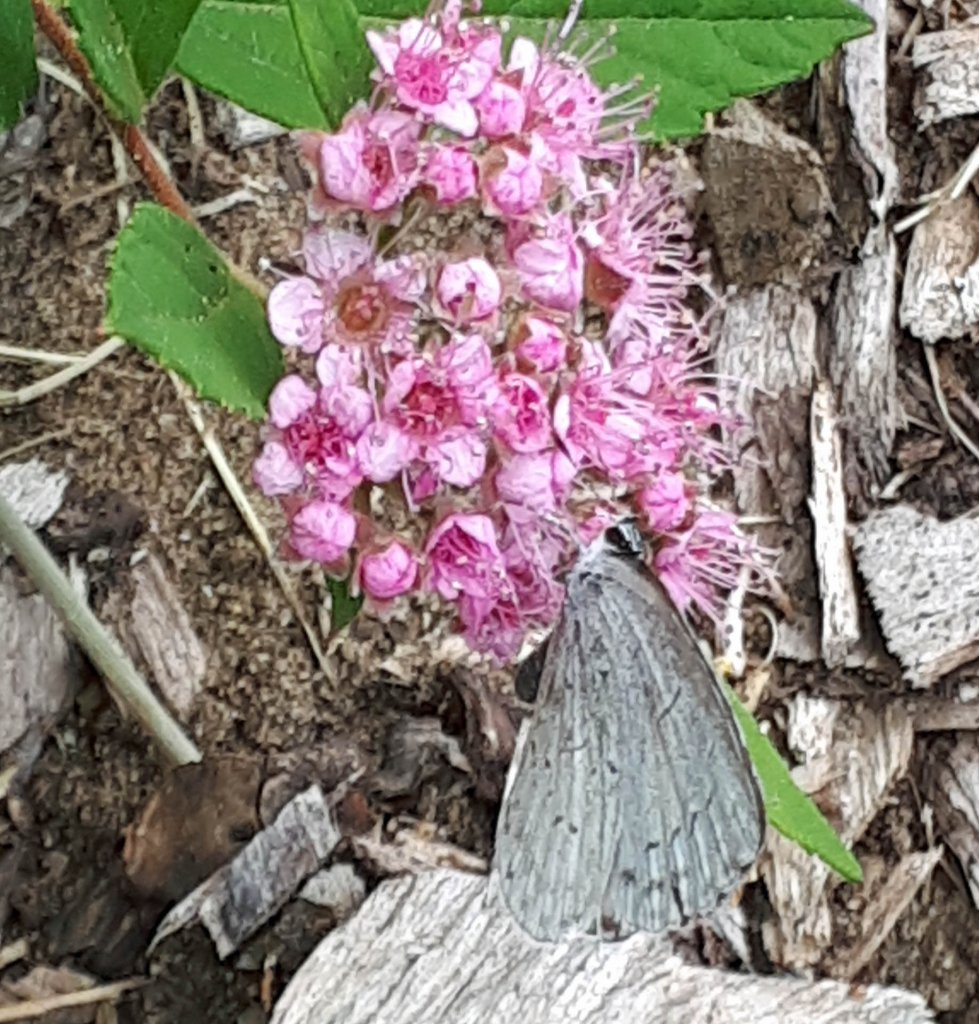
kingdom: Animalia
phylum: Arthropoda
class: Insecta
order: Lepidoptera
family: Lycaenidae
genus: Celastrina
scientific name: Celastrina
